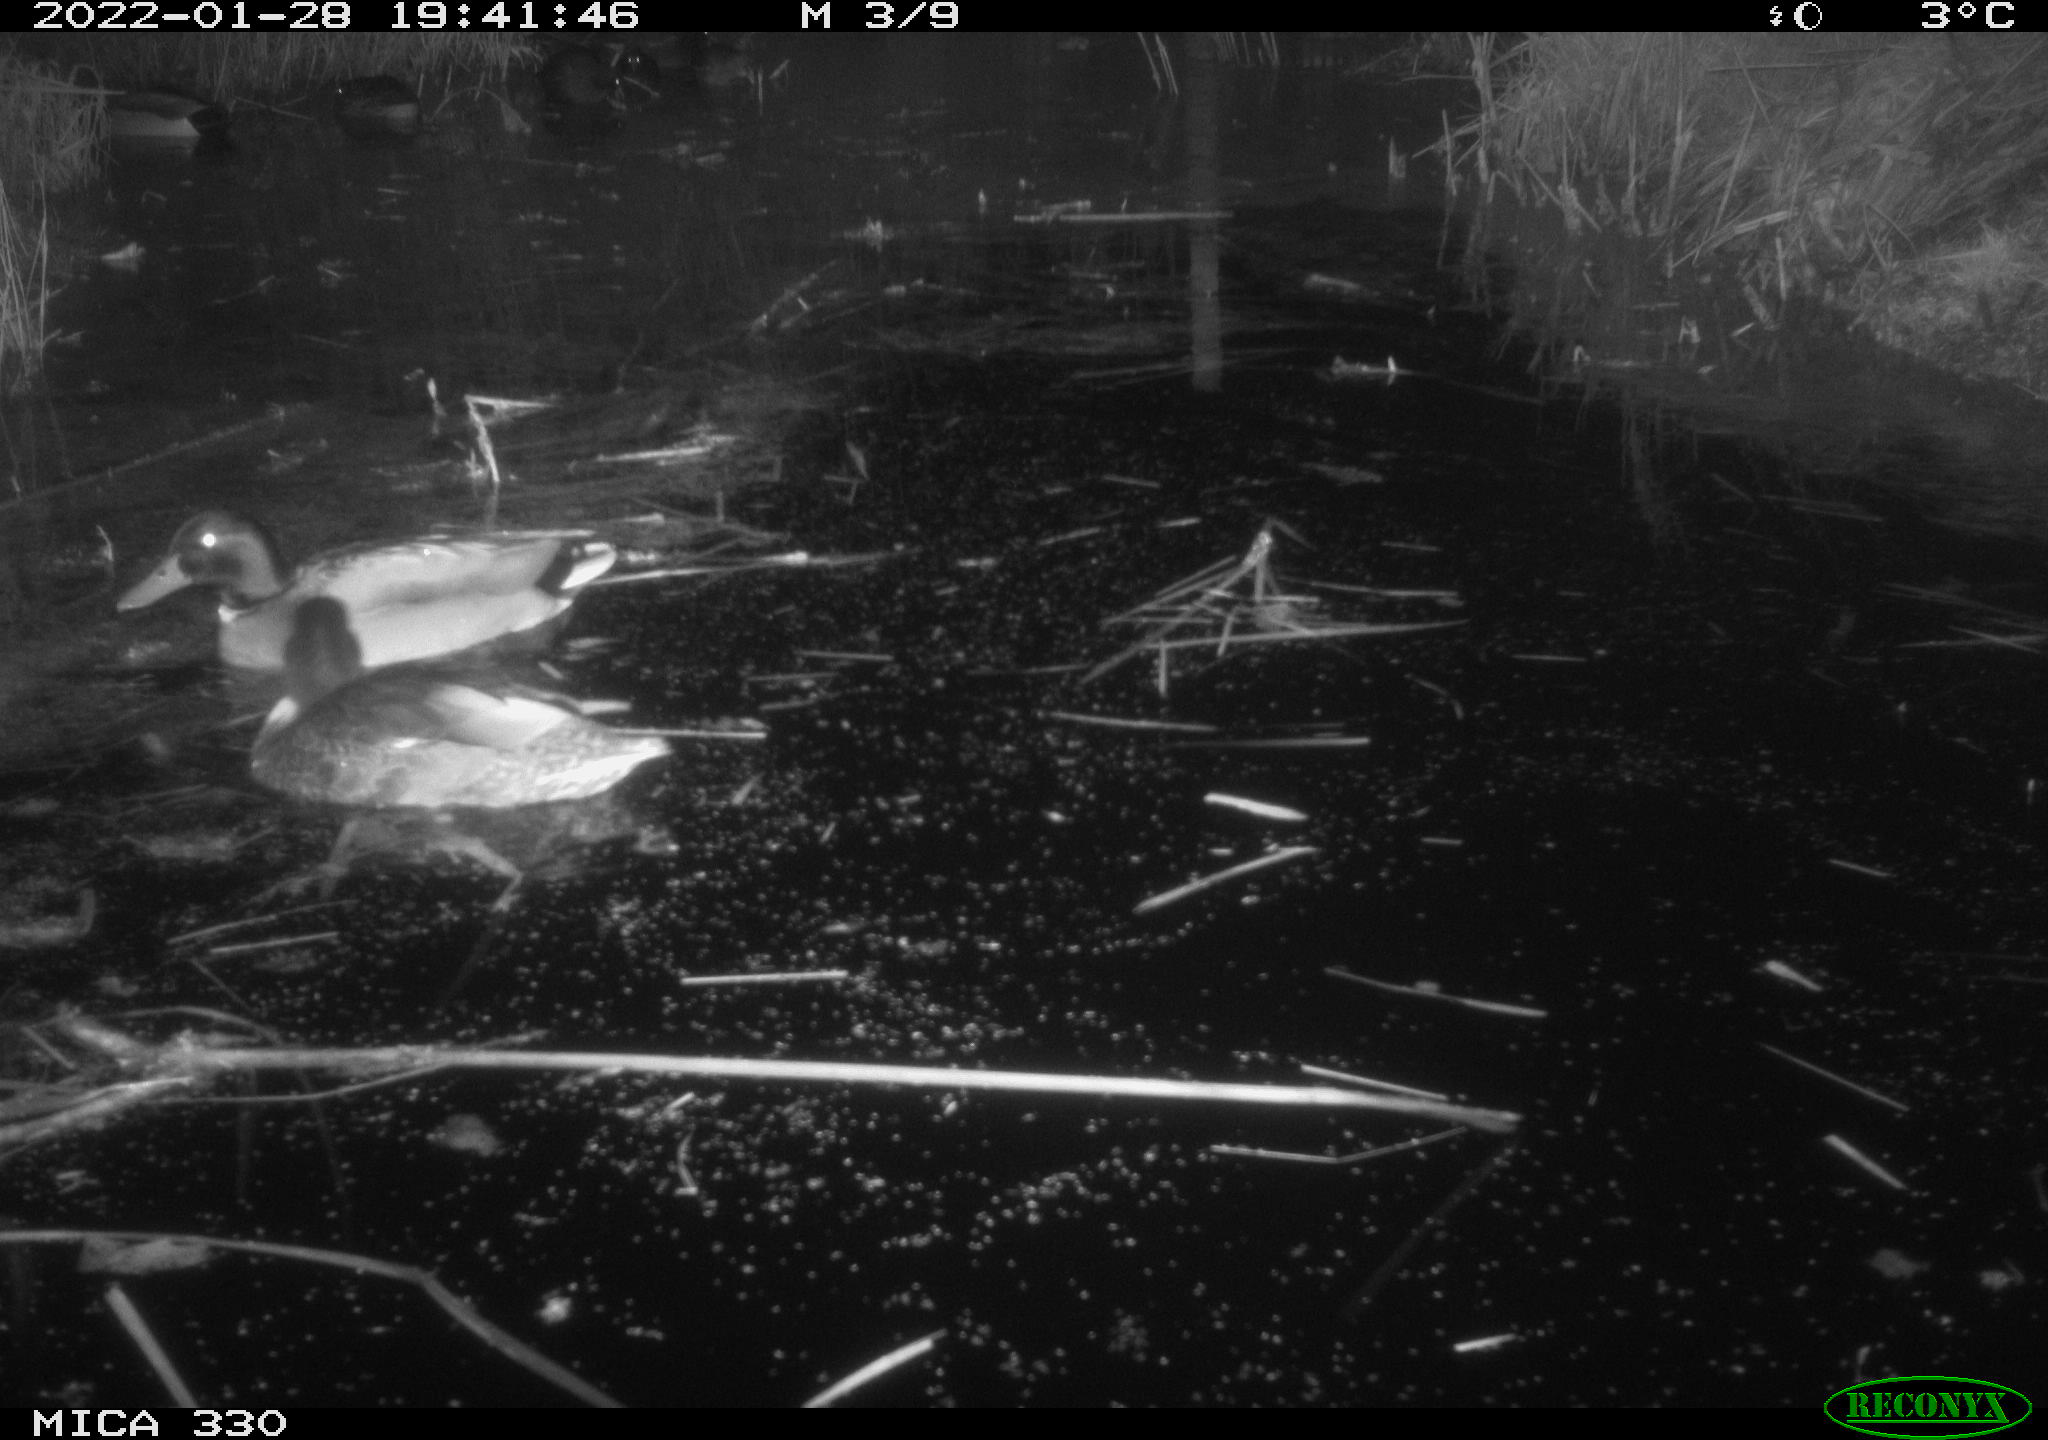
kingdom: Animalia
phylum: Chordata
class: Aves
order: Anseriformes
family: Anatidae
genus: Anas
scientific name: Anas platyrhynchos
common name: Mallard
